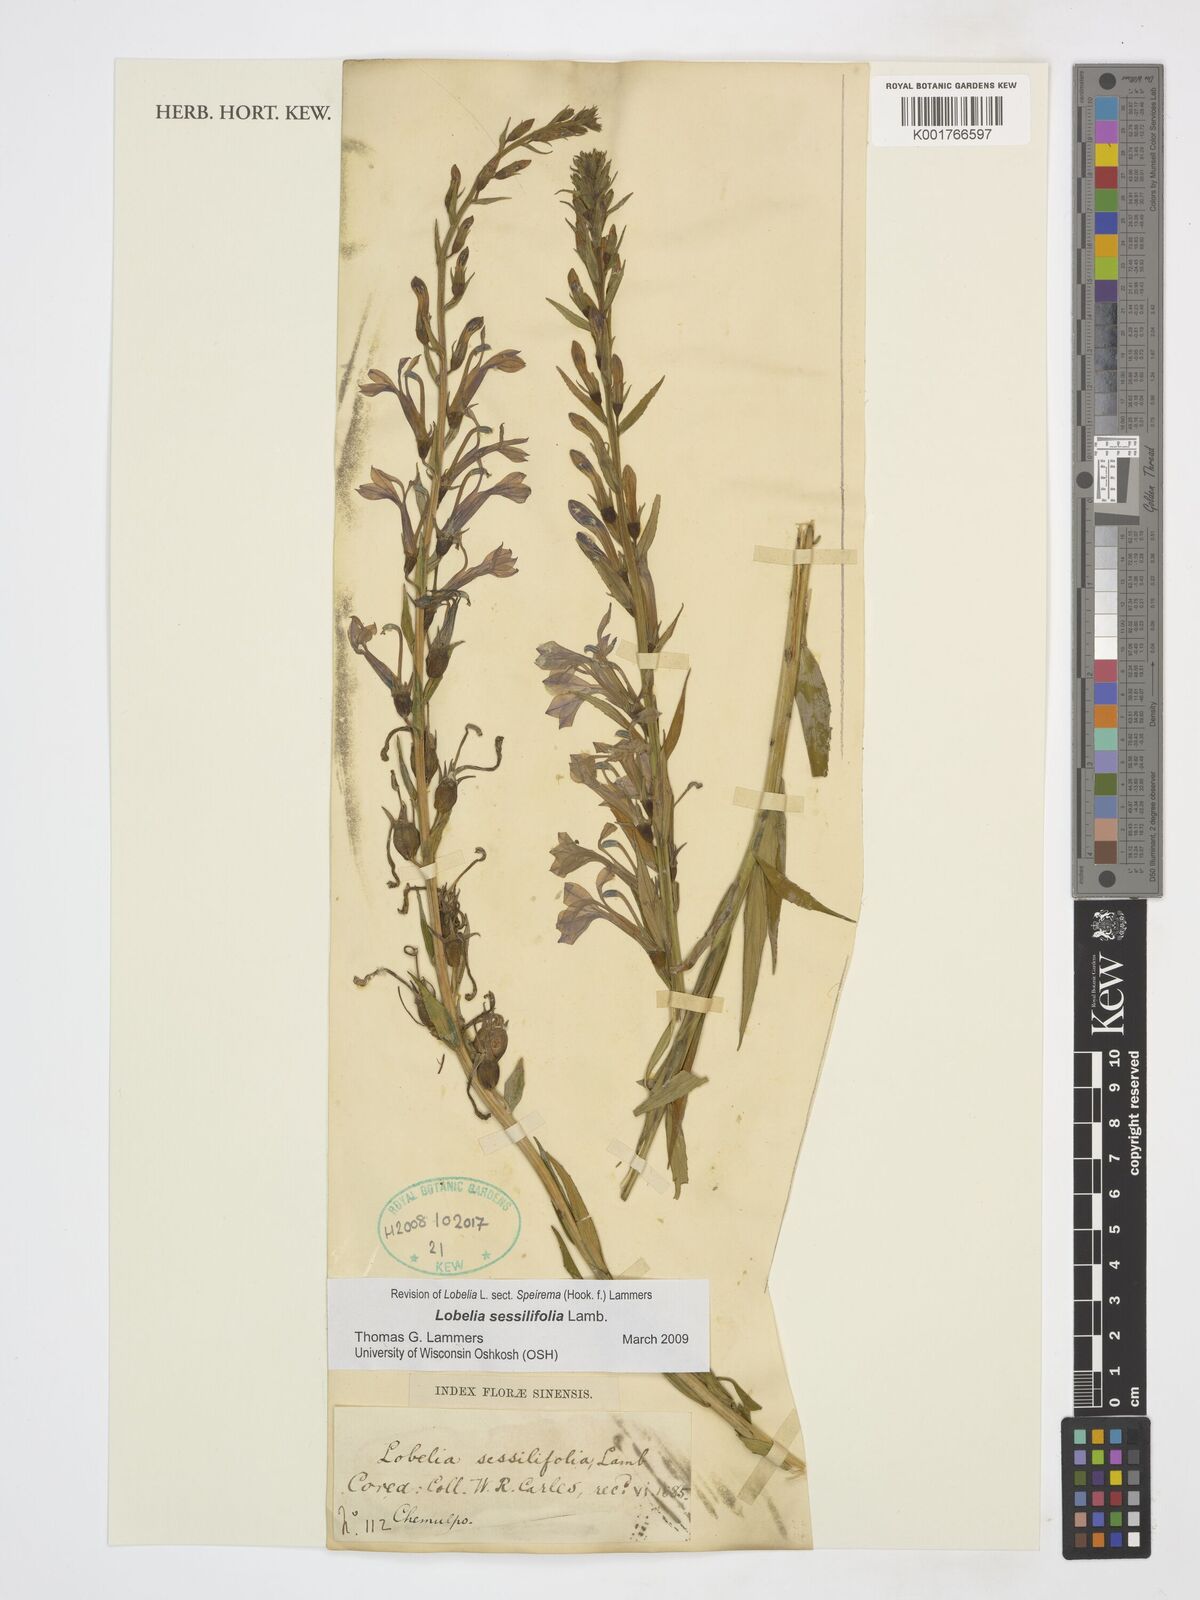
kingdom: Plantae
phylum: Tracheophyta
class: Magnoliopsida
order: Asterales
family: Campanulaceae
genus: Lobelia
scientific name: Lobelia sessilifolia
